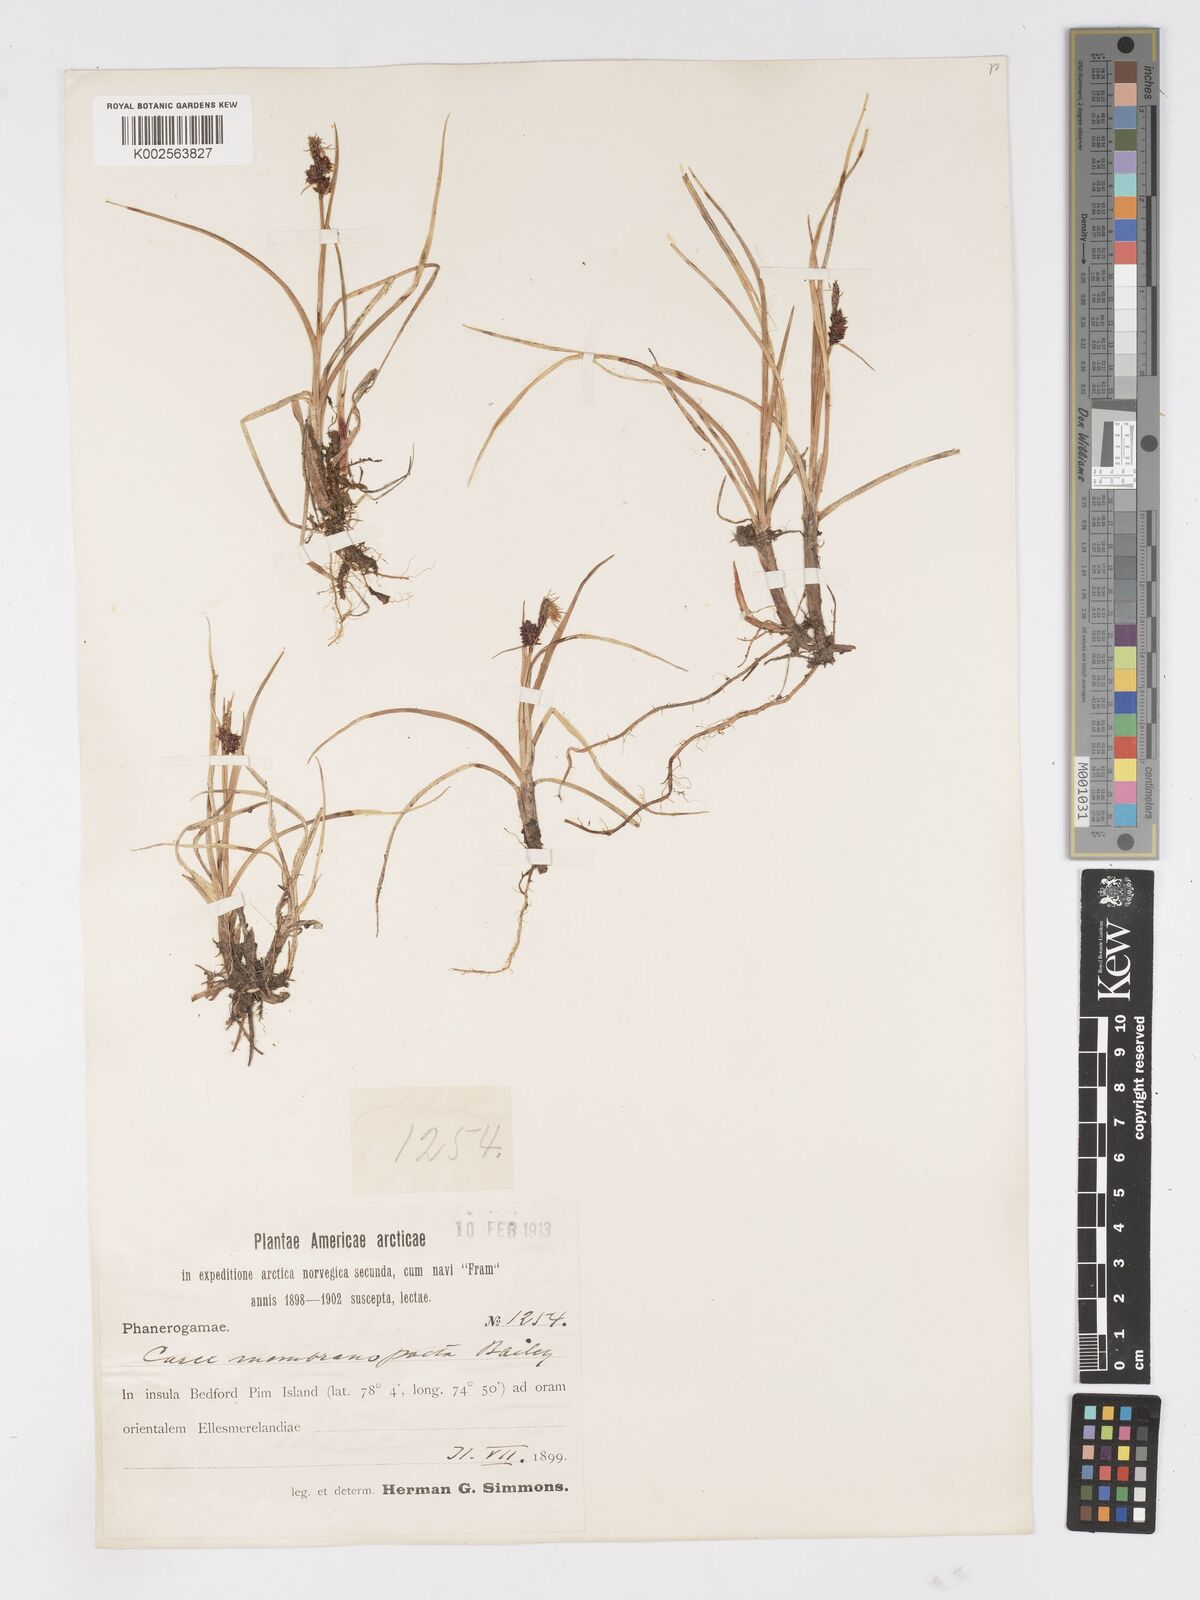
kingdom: Plantae
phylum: Tracheophyta
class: Liliopsida
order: Poales
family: Cyperaceae
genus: Carex
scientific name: Carex membranacea
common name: Fragile sedge
